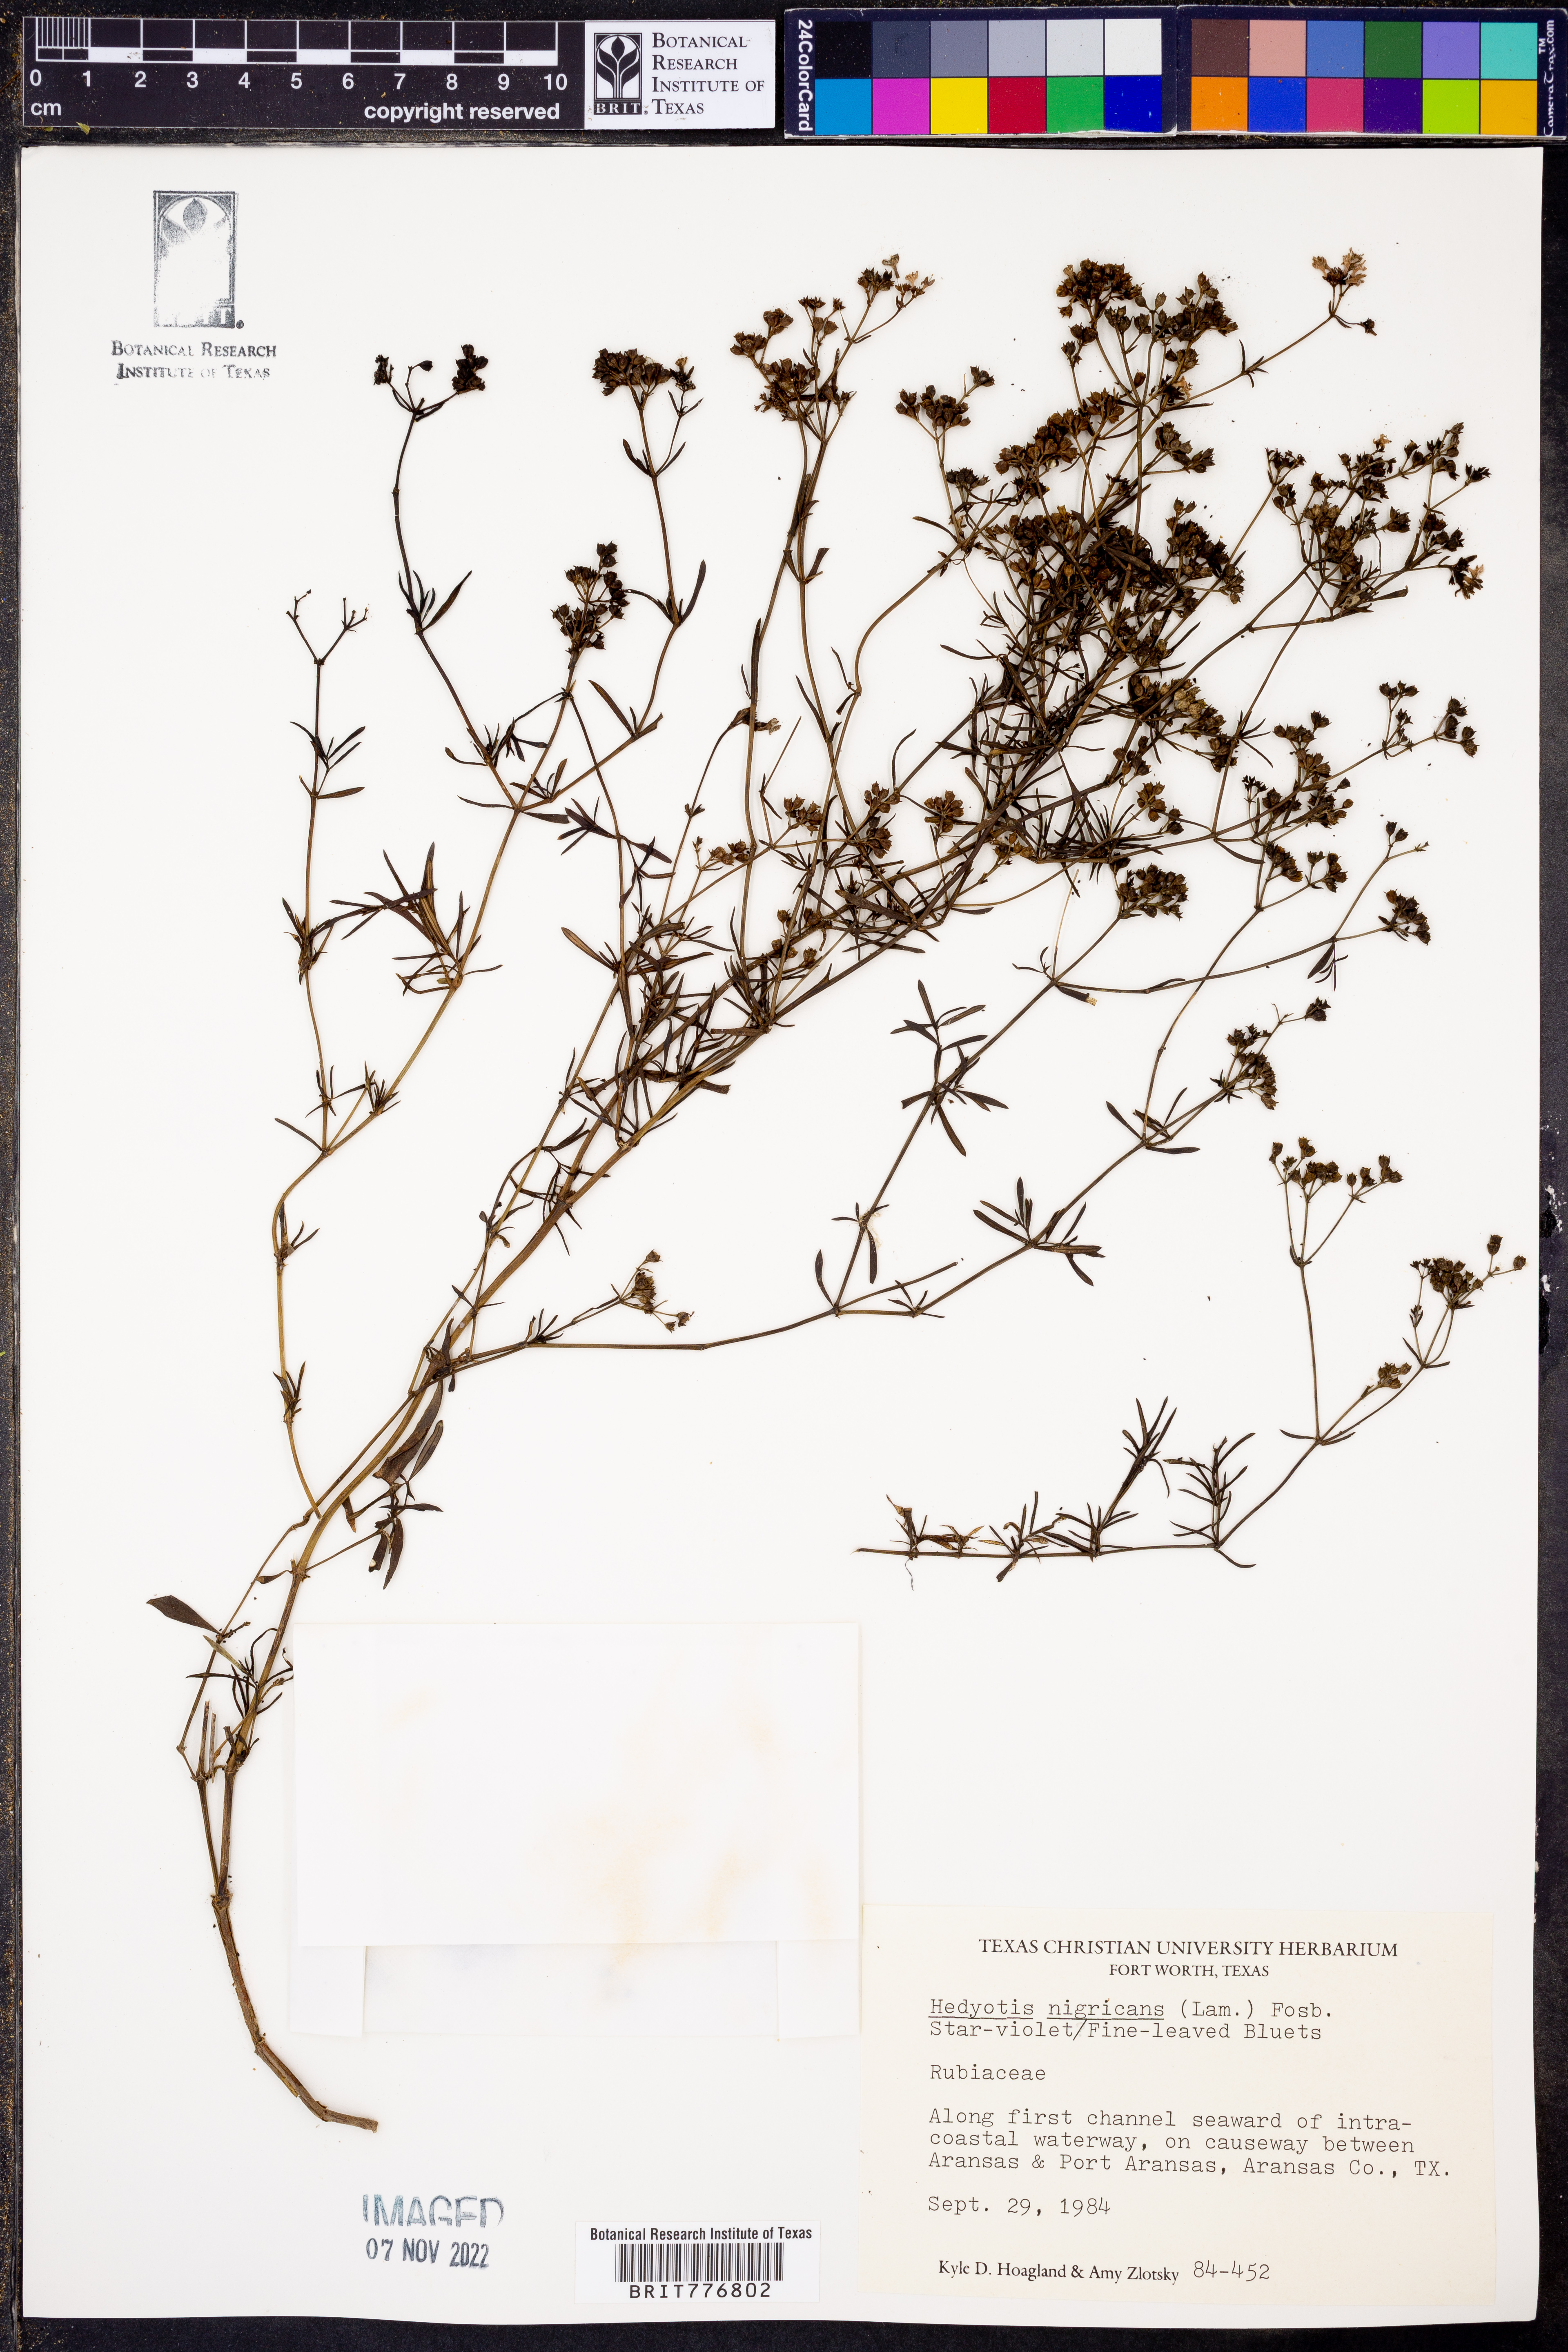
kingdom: Plantae
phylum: Tracheophyta
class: Magnoliopsida
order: Gentianales
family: Rubiaceae
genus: Stenaria
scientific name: Stenaria nigricans
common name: Diamondflowers
